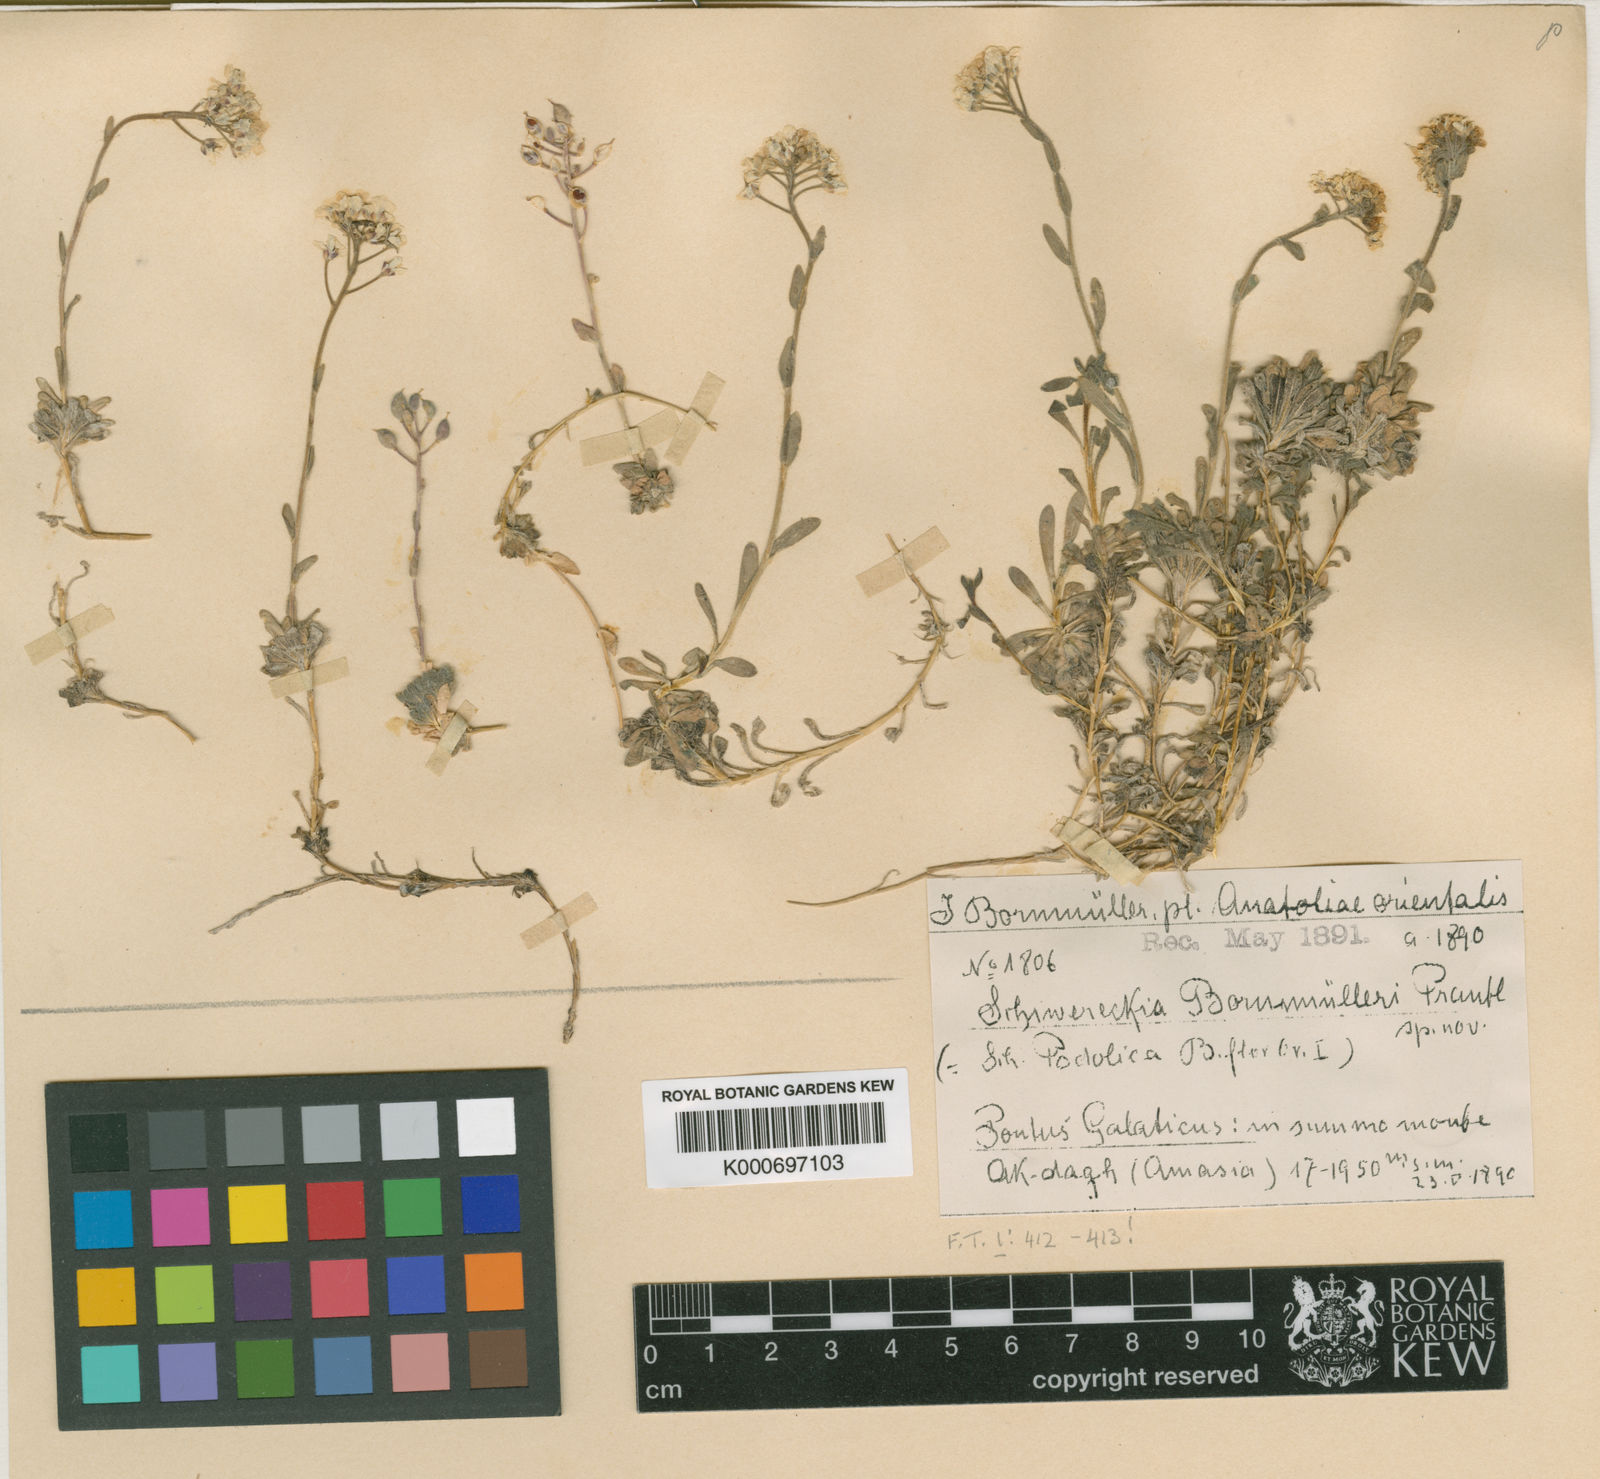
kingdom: Plantae
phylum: Tracheophyta
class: Magnoliopsida
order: Brassicales
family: Brassicaceae
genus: Draba
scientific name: Draba doerfleri
